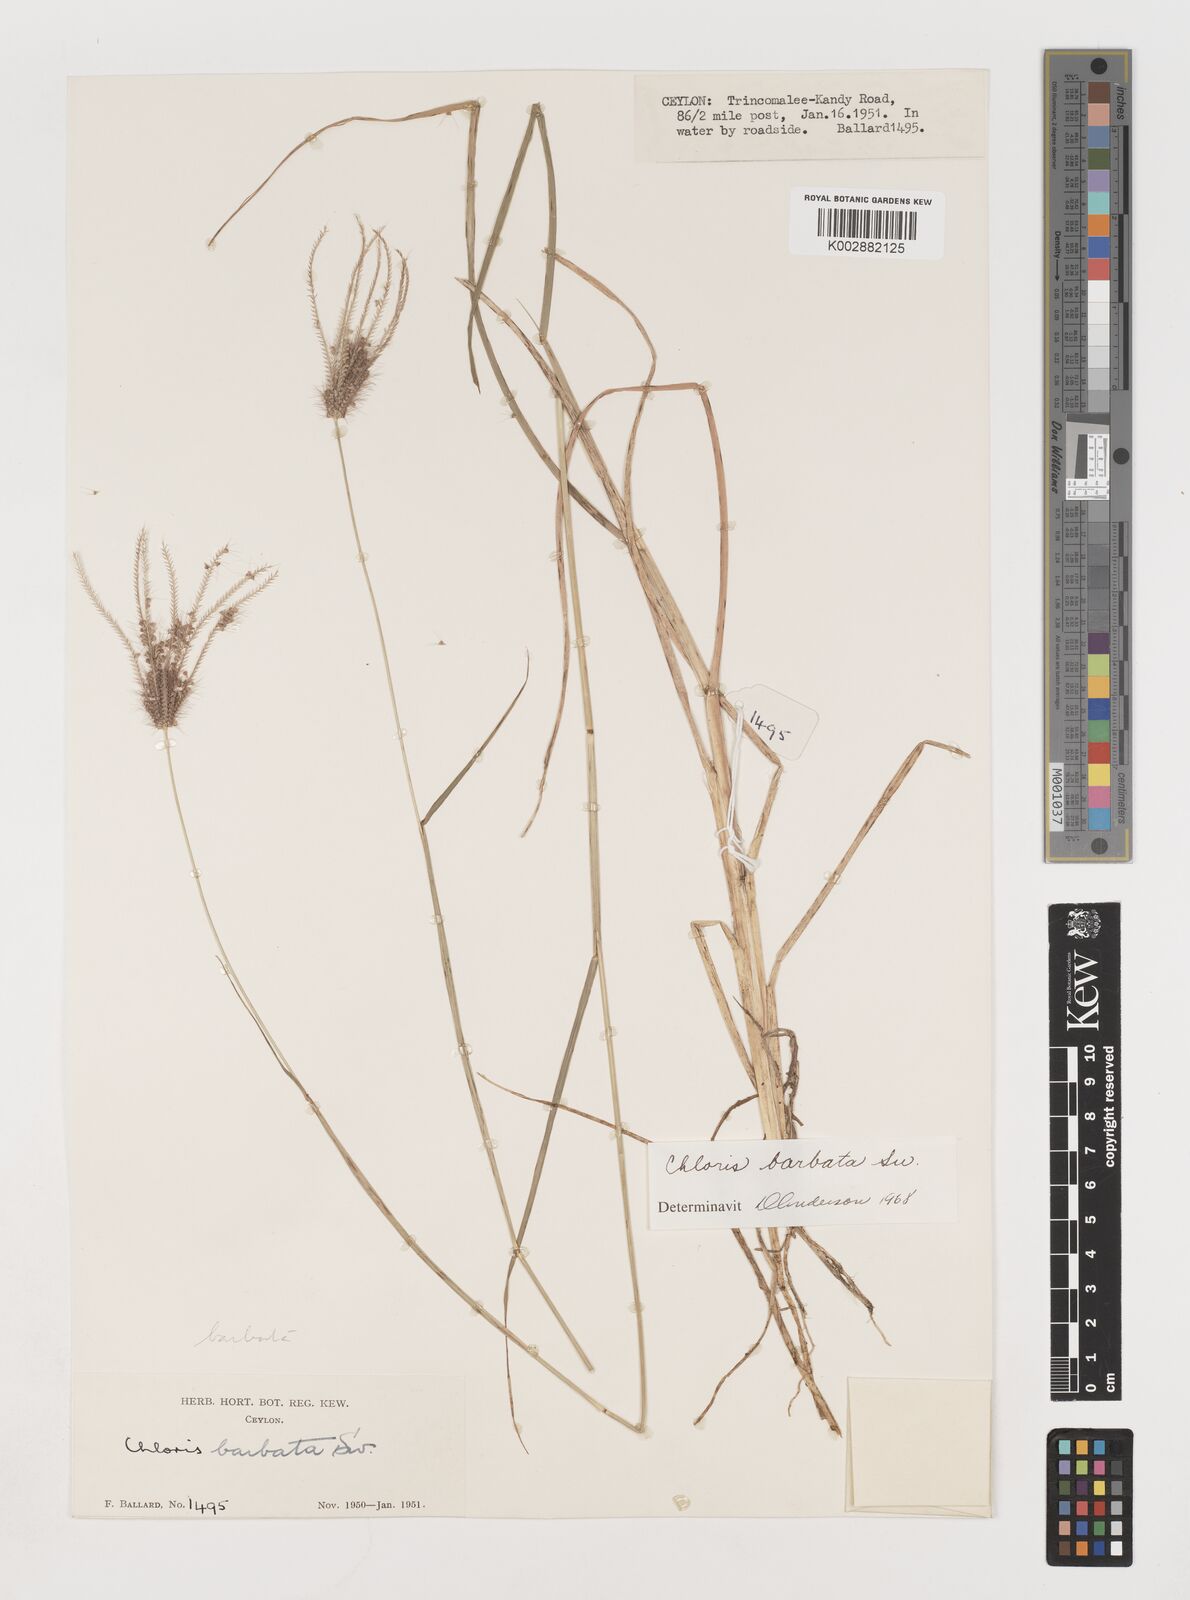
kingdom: Plantae
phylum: Tracheophyta
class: Liliopsida
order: Poales
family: Poaceae
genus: Chloris
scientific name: Chloris barbata
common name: Swollen fingergrass
